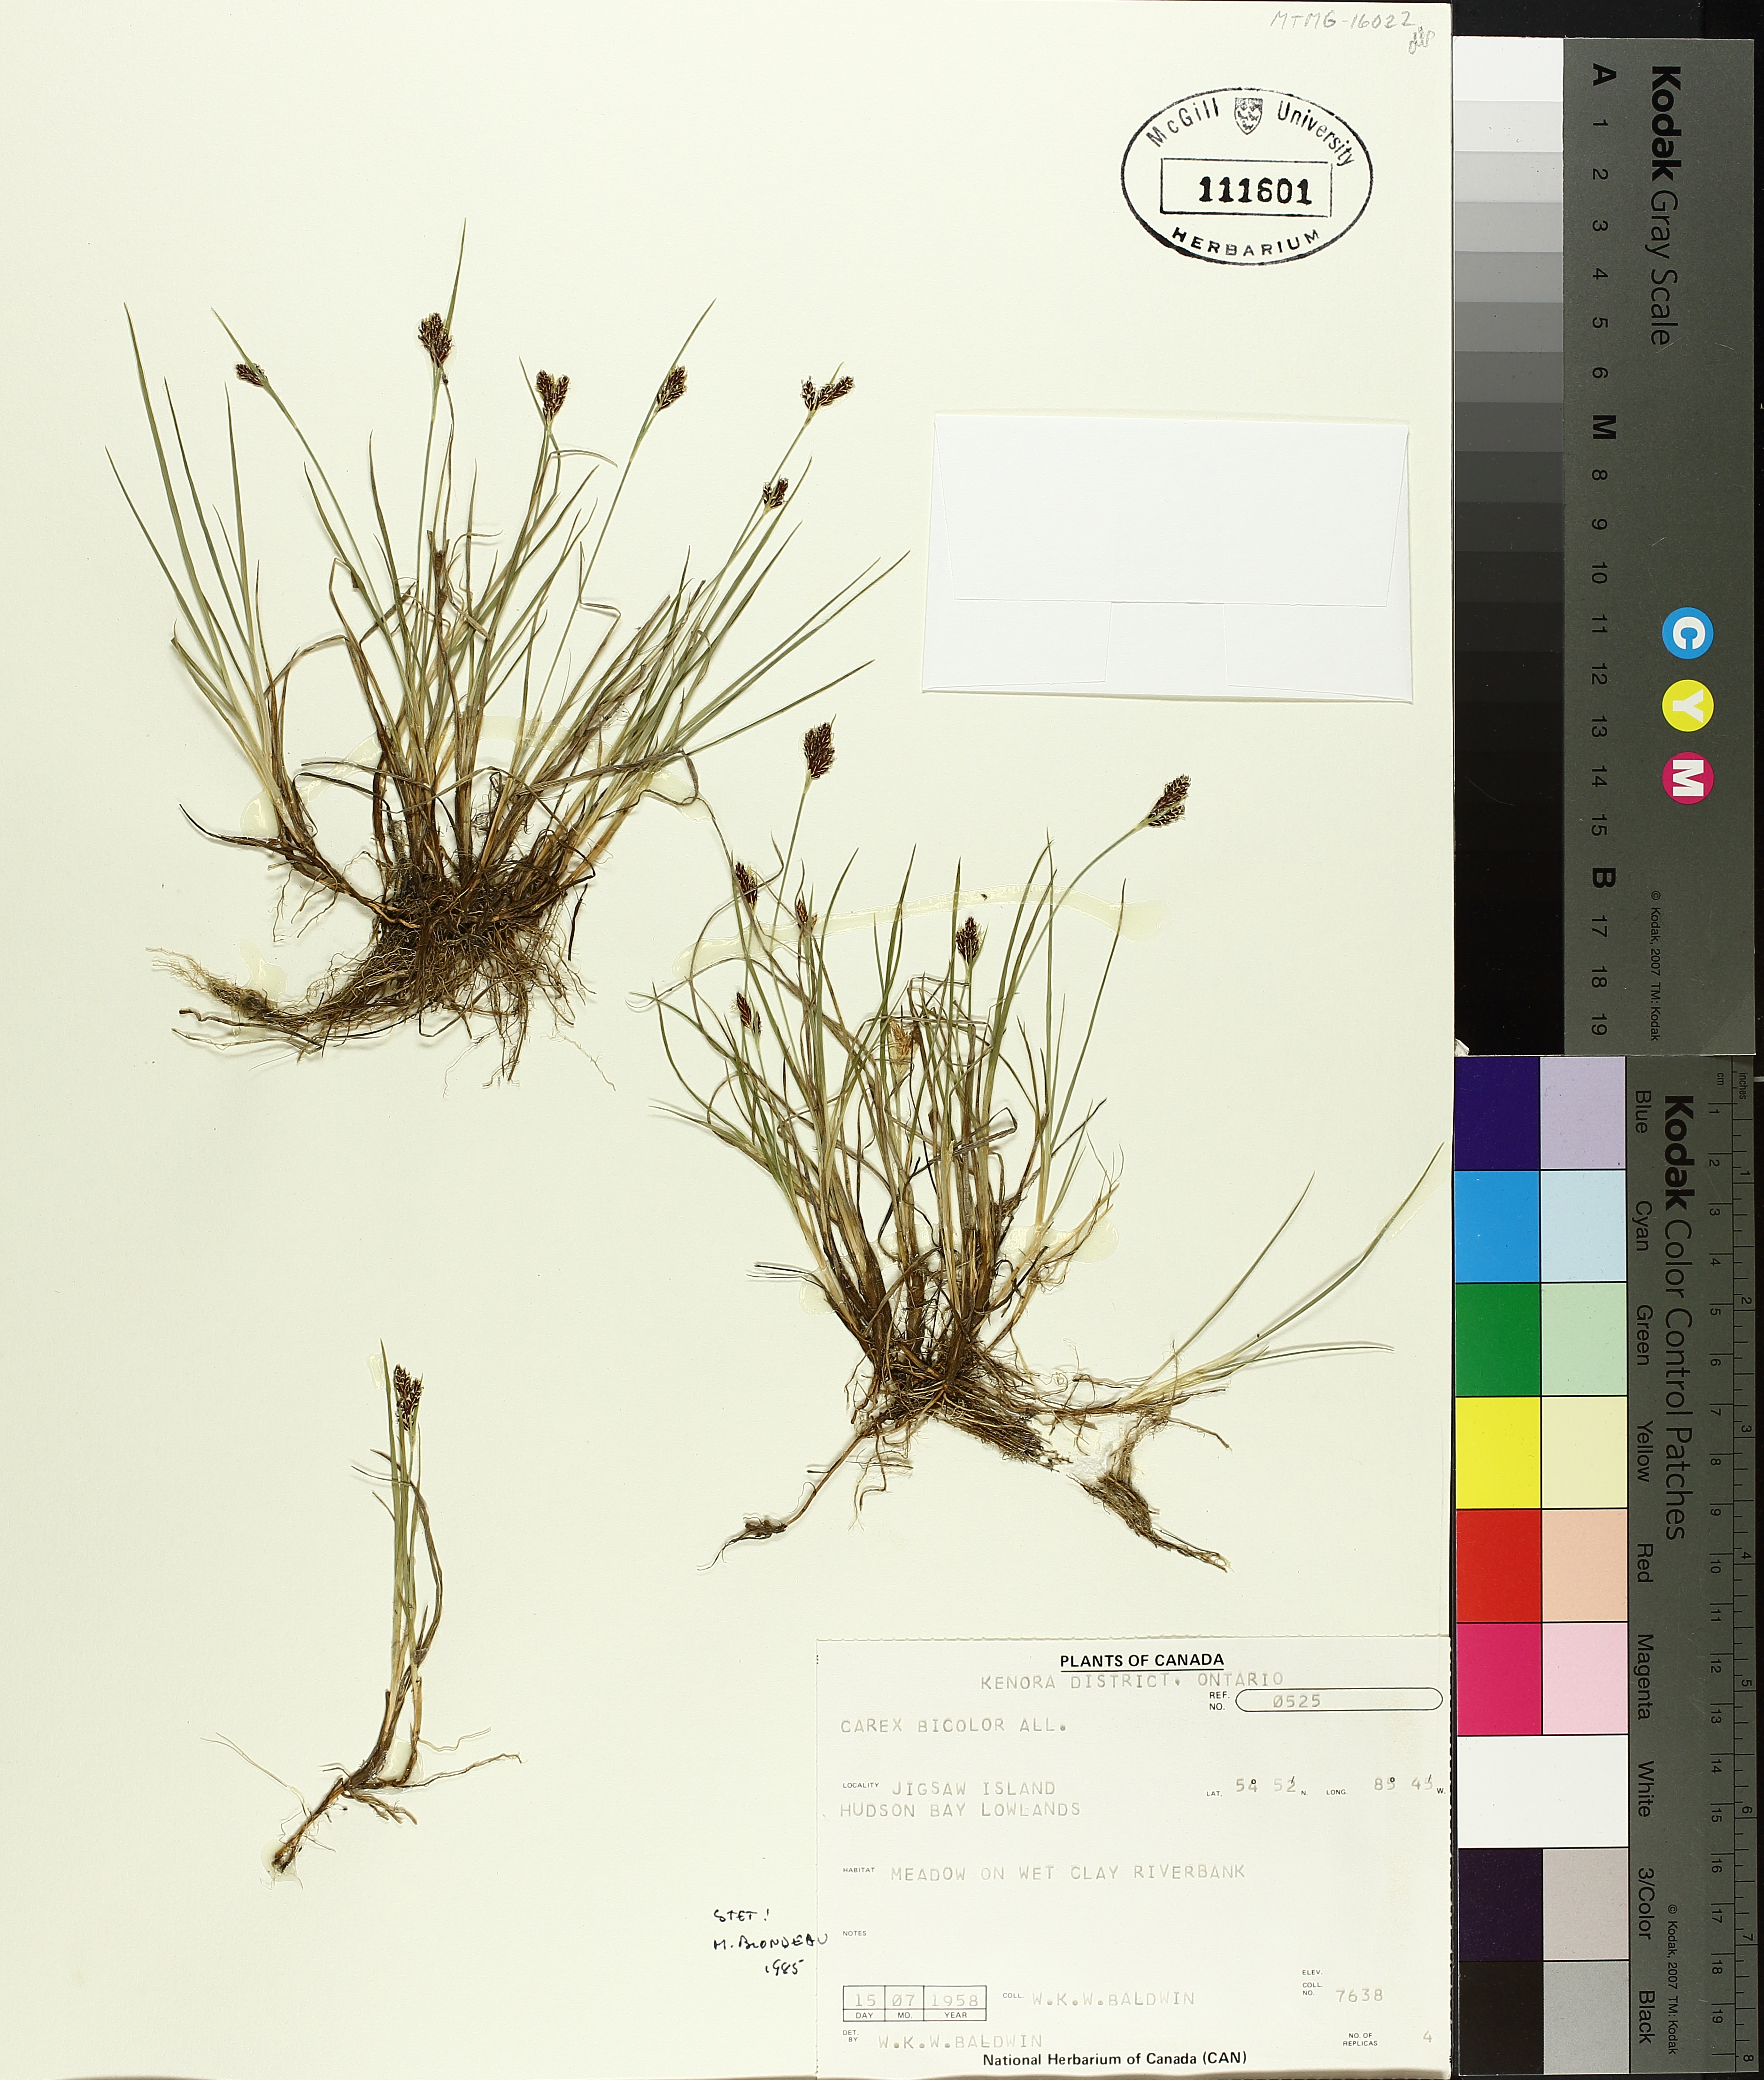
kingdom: Plantae
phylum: Tracheophyta
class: Liliopsida
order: Poales
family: Cyperaceae
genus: Carex
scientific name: Carex bicolor
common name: Bicoloured sedge
